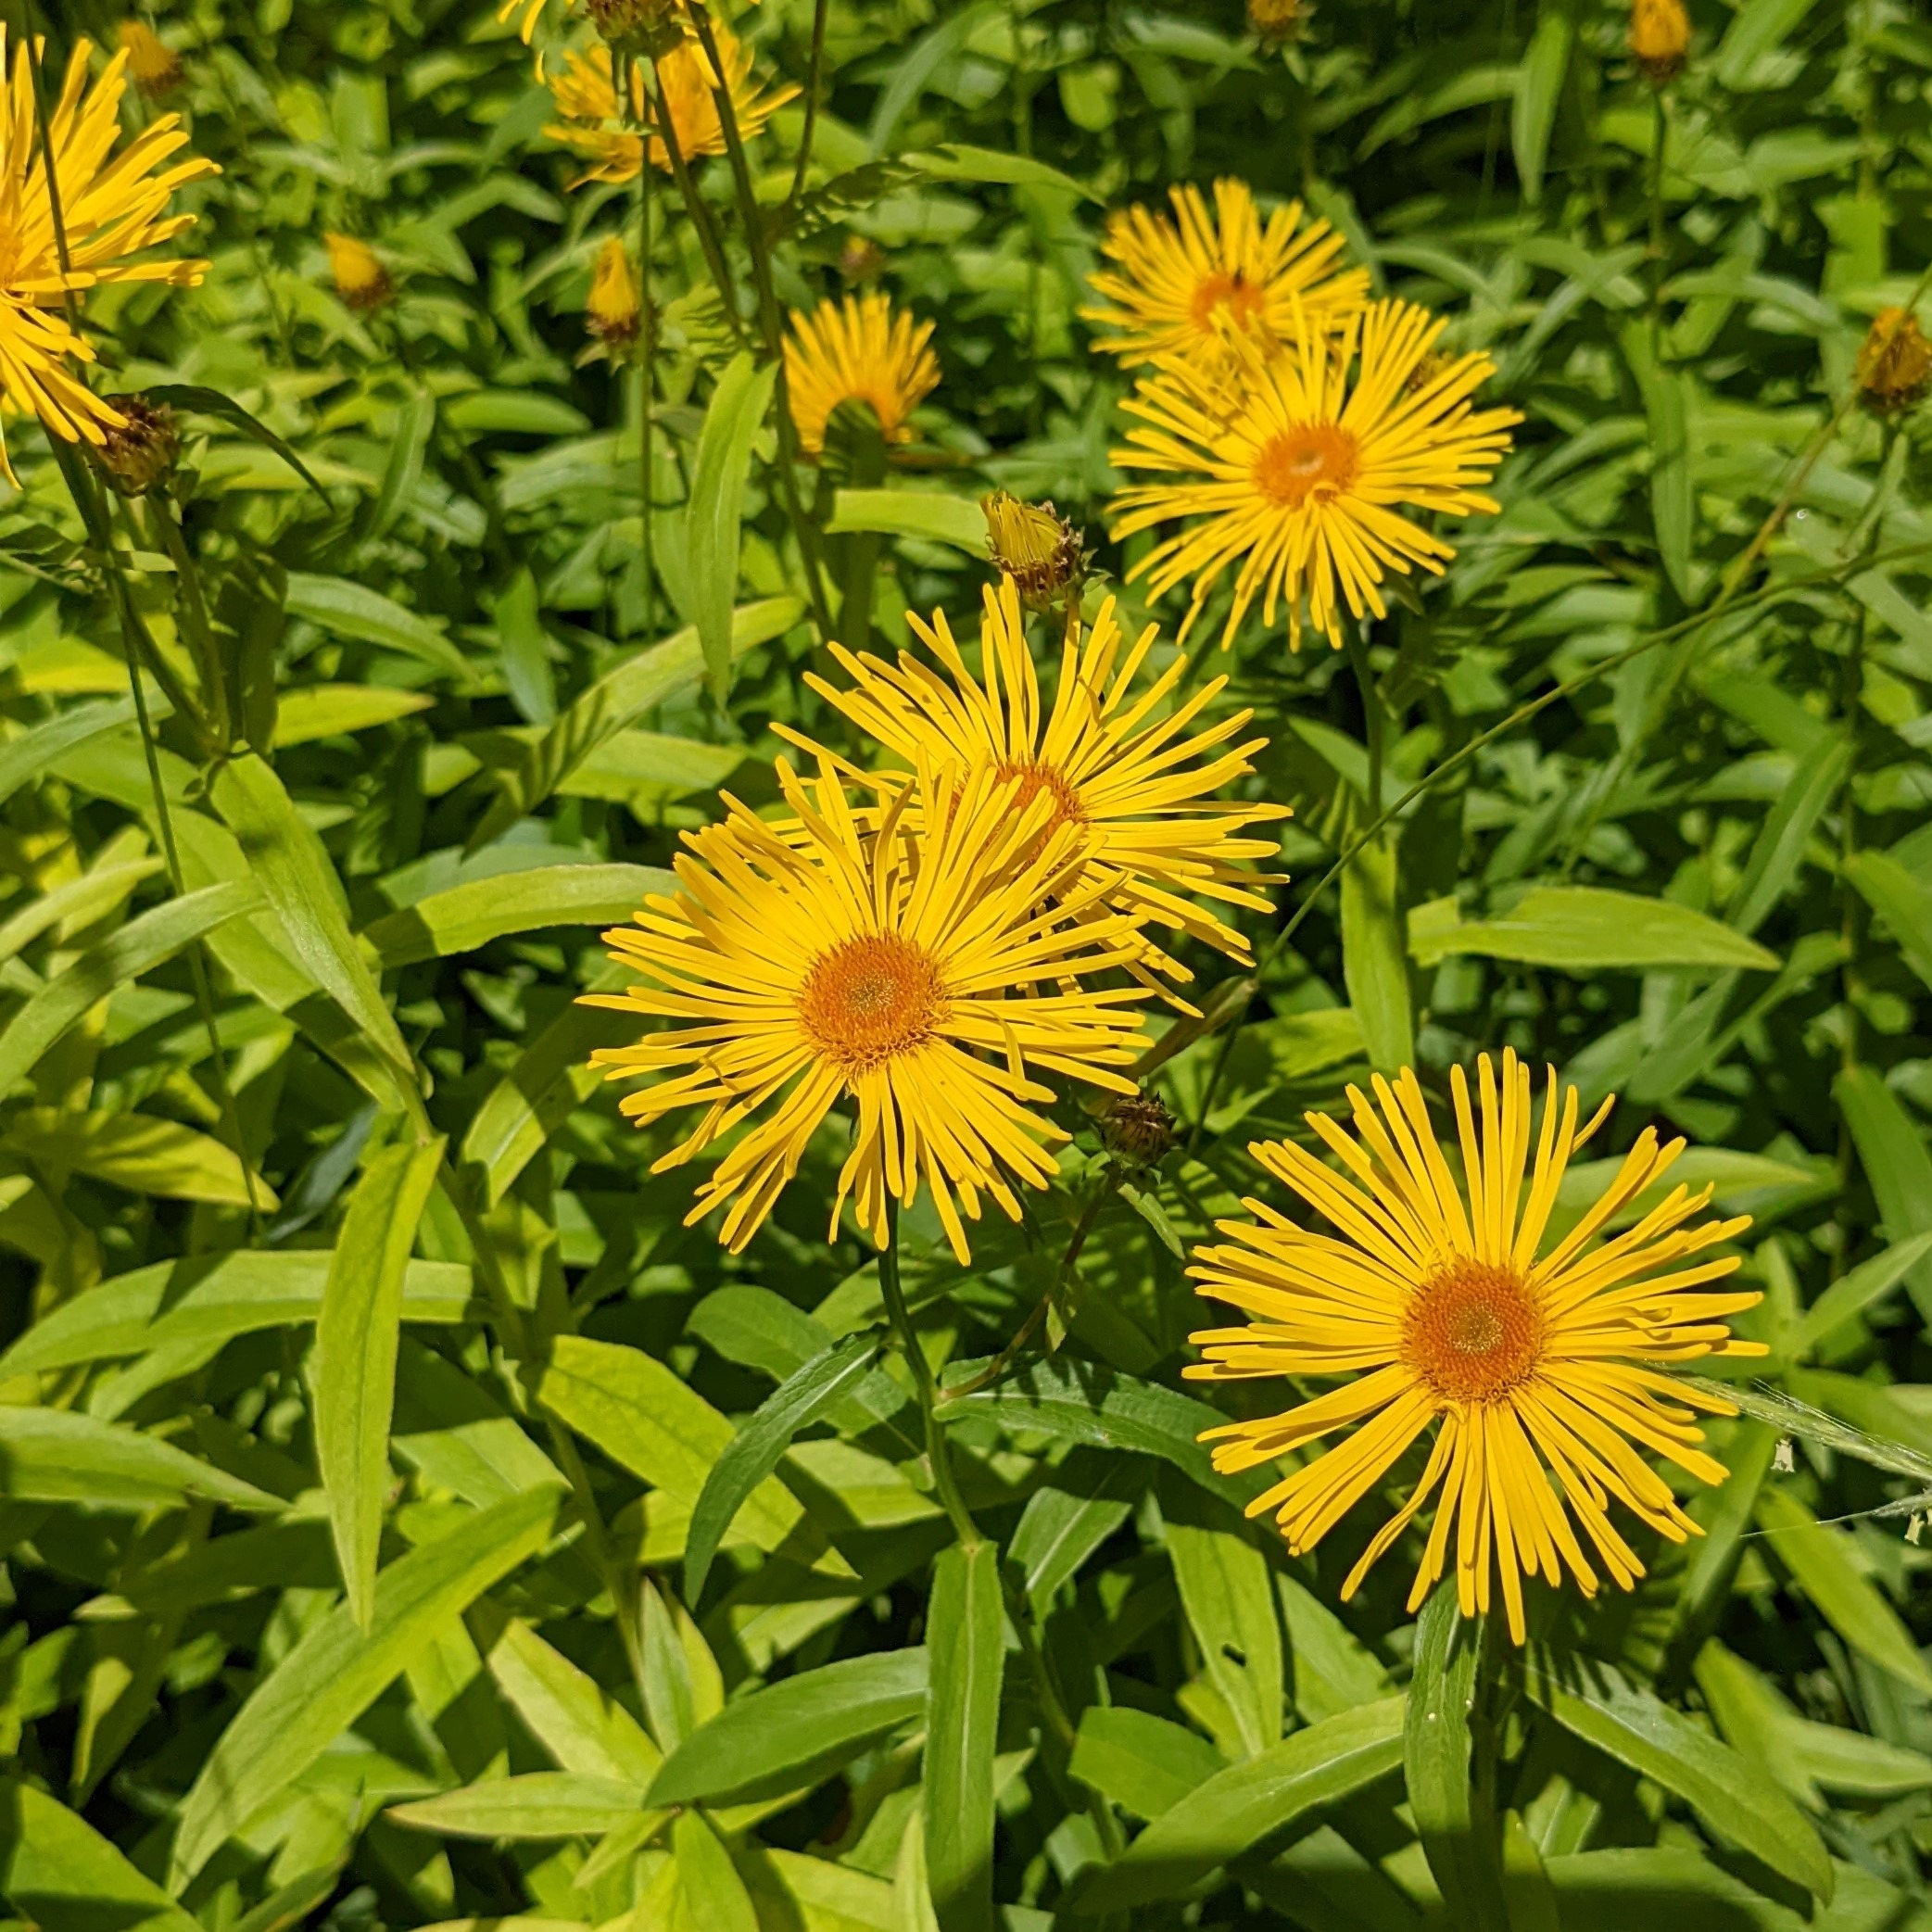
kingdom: Plantae
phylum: Tracheophyta
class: Magnoliopsida
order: Asterales
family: Asteraceae
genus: Pentanema
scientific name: Pentanema salicinum
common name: Pile-alant
